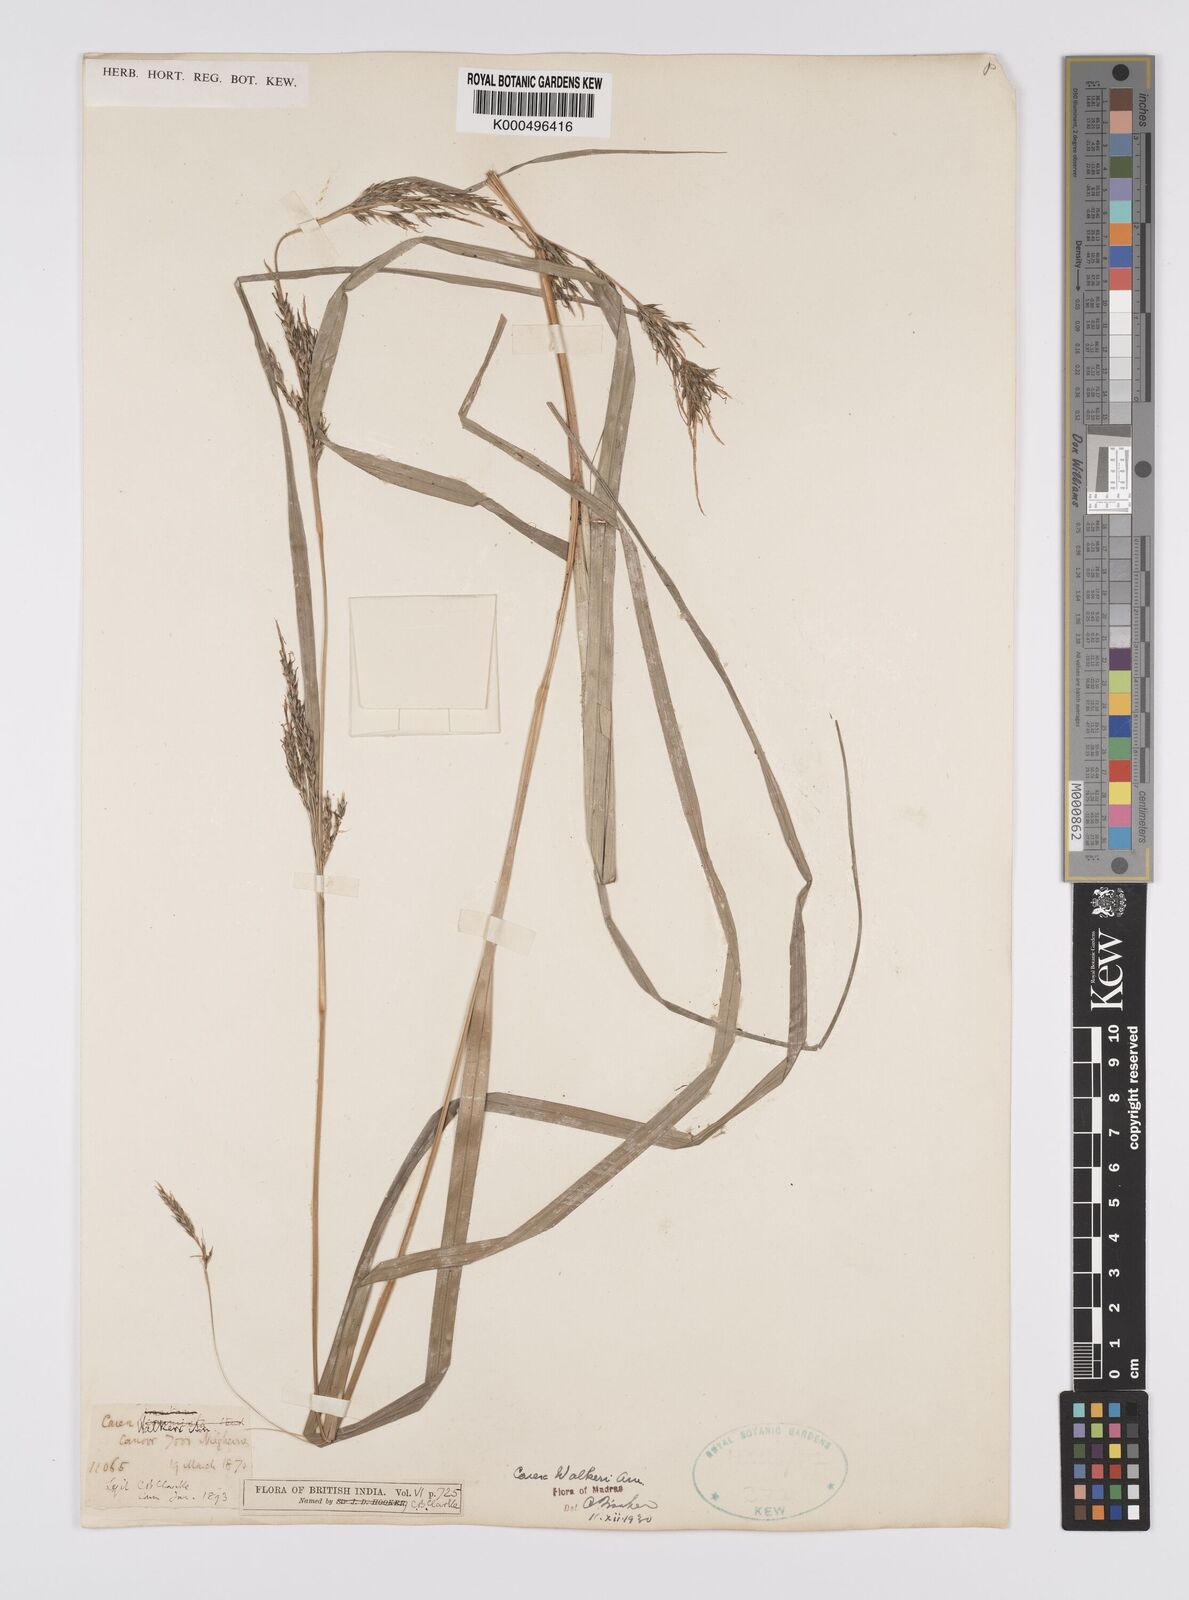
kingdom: Plantae
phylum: Tracheophyta
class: Liliopsida
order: Poales
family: Cyperaceae
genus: Carex
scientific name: Carex walkeri
